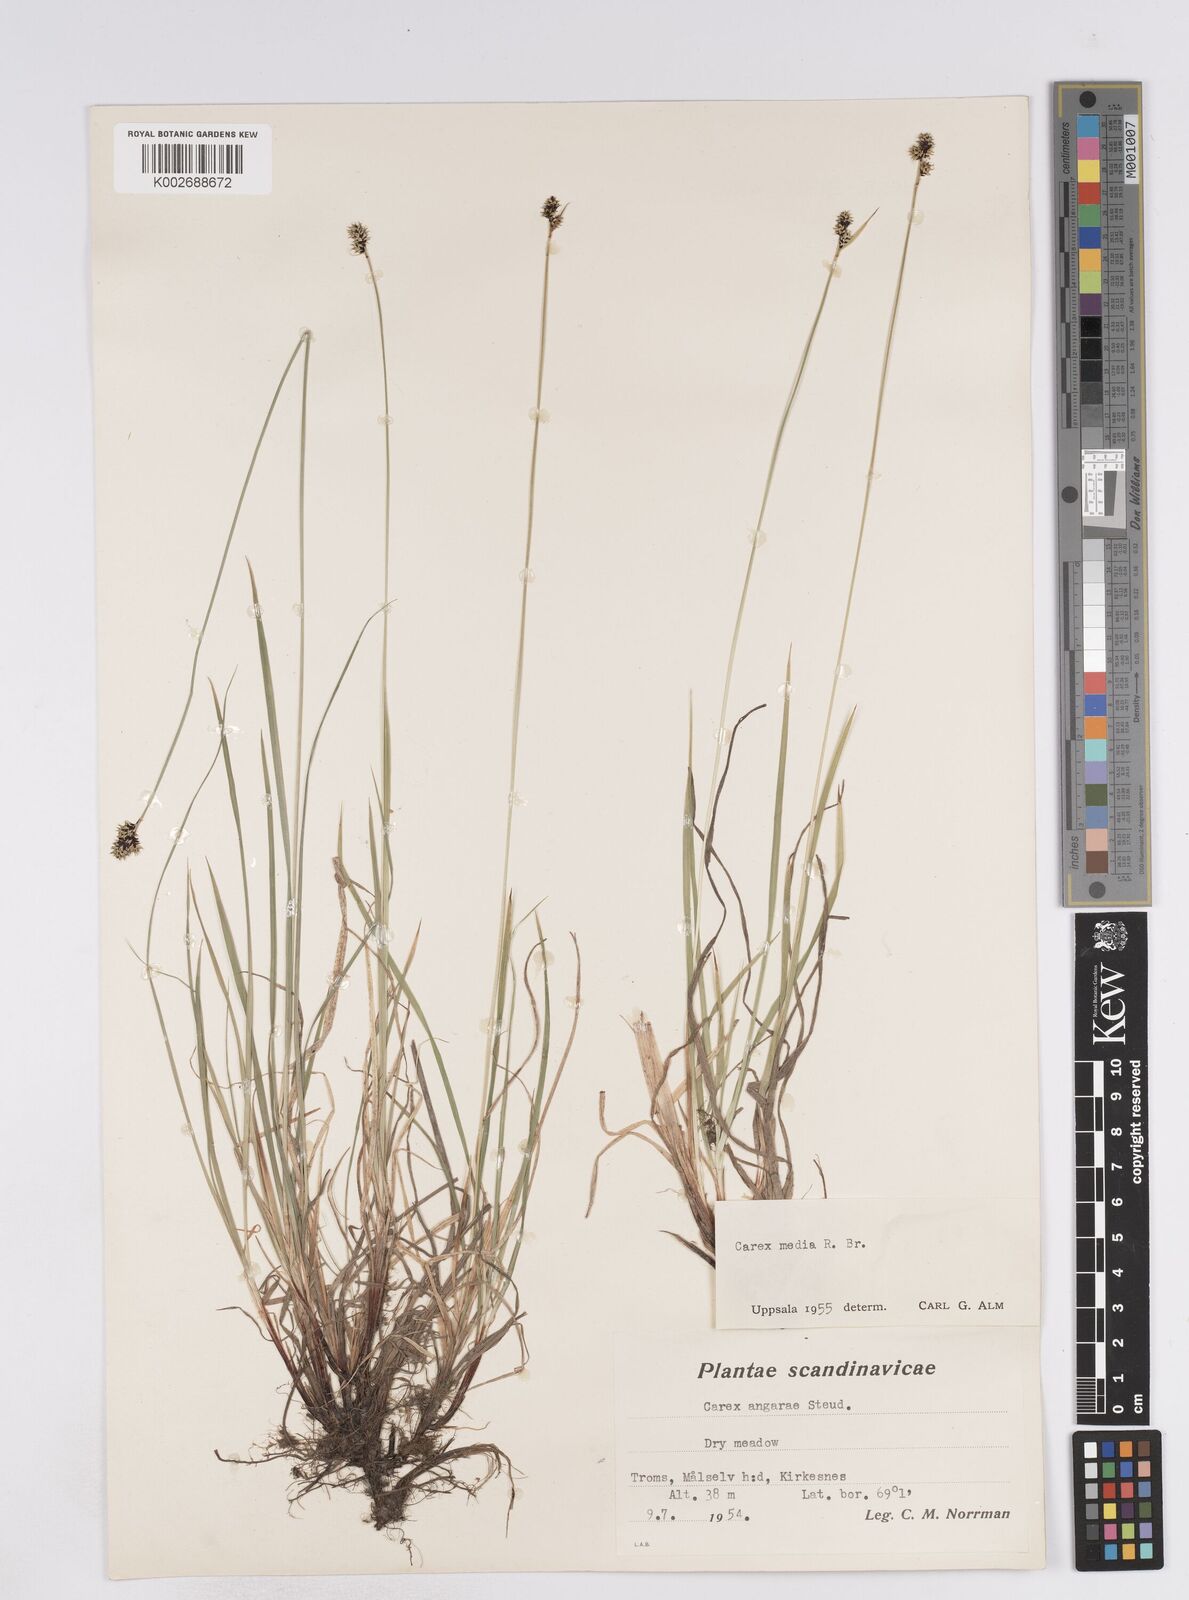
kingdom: Plantae
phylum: Tracheophyta
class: Liliopsida
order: Poales
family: Cyperaceae
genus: Carex
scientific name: Carex media
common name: Alpine sedge
